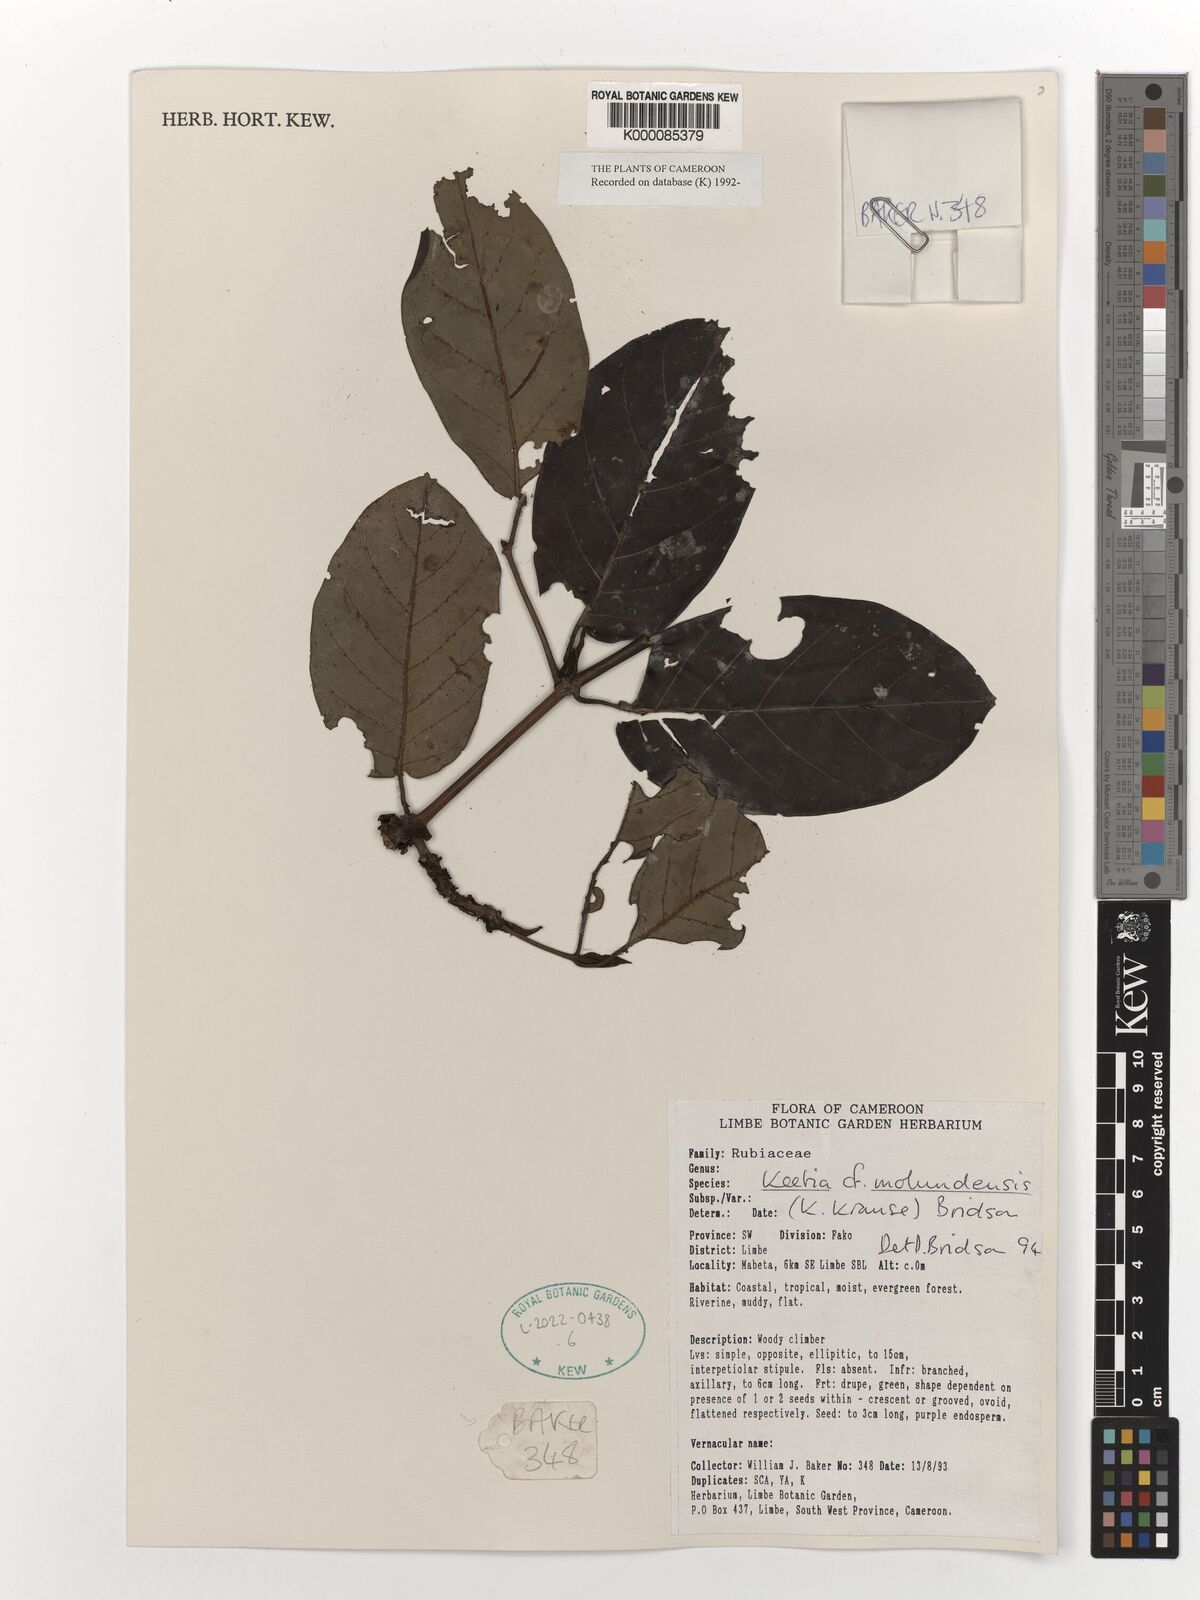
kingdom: Plantae
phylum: Tracheophyta
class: Magnoliopsida
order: Gentianales
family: Rubiaceae
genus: Keetia
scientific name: Keetia molundensis
